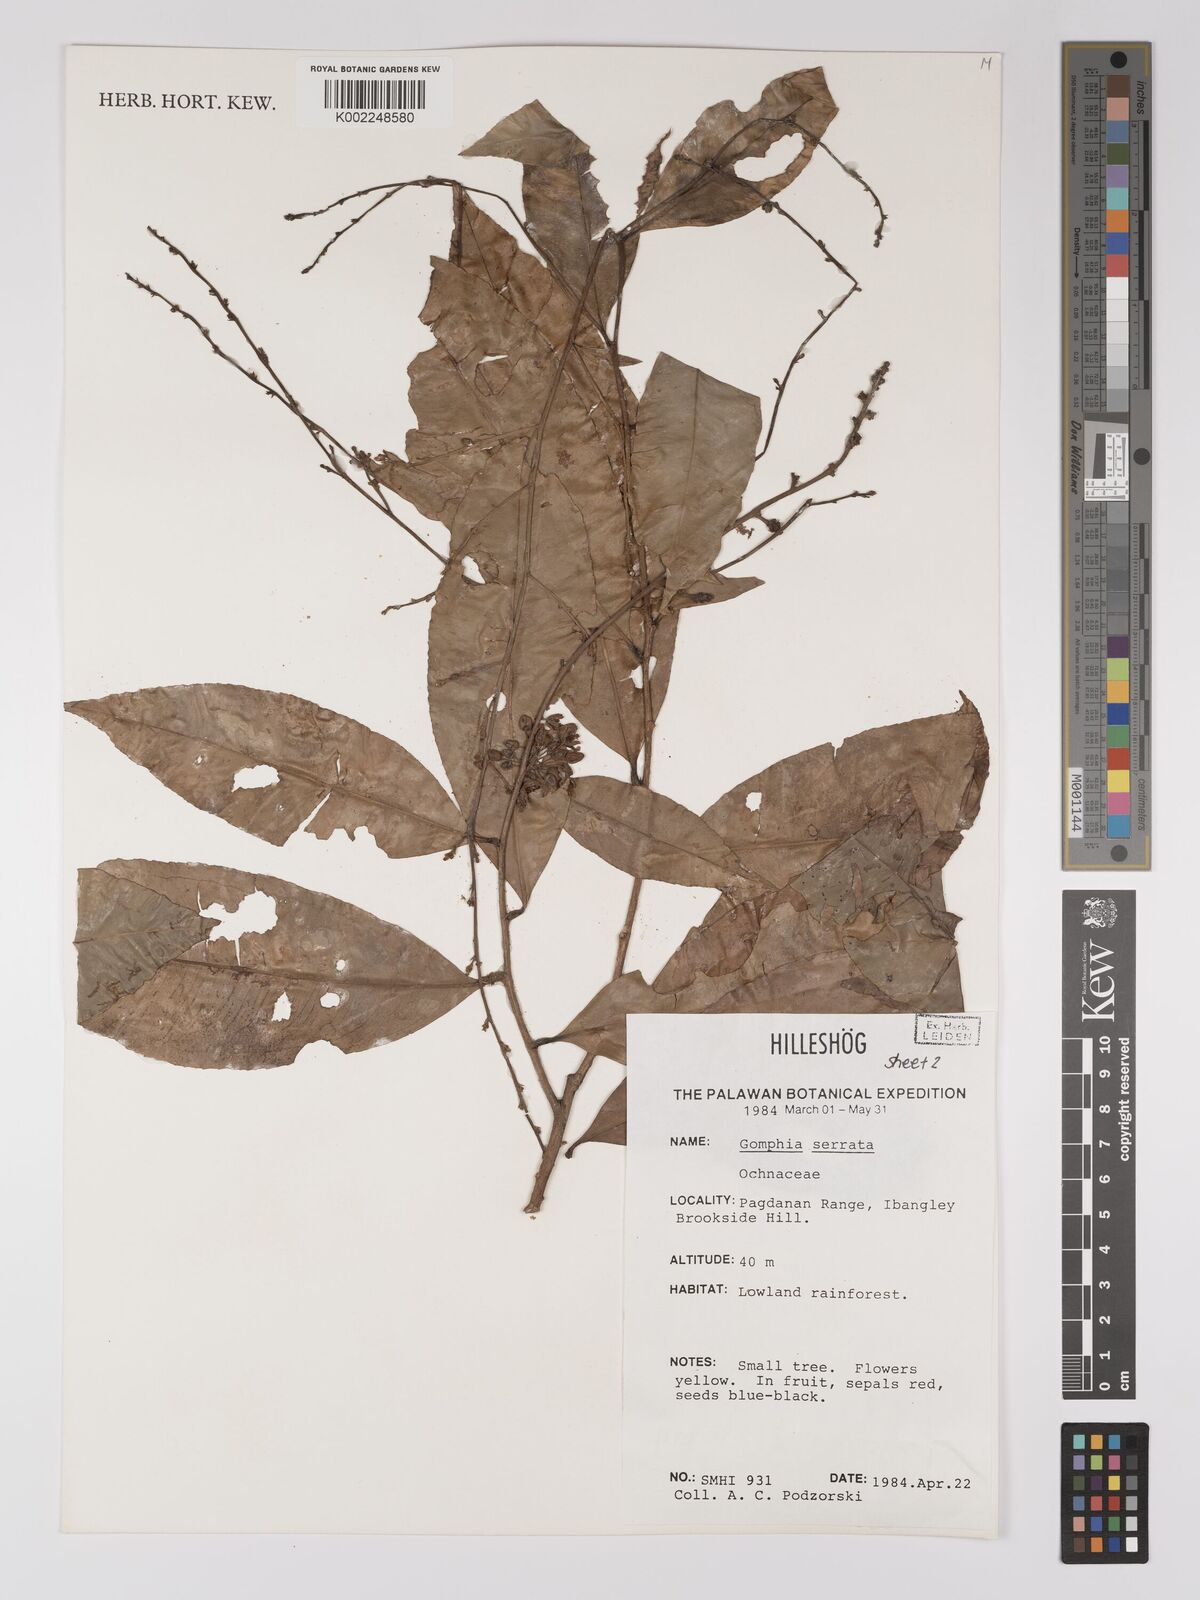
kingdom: Plantae
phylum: Tracheophyta
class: Magnoliopsida
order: Malpighiales
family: Ochnaceae
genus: Gomphia
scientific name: Gomphia serrata
